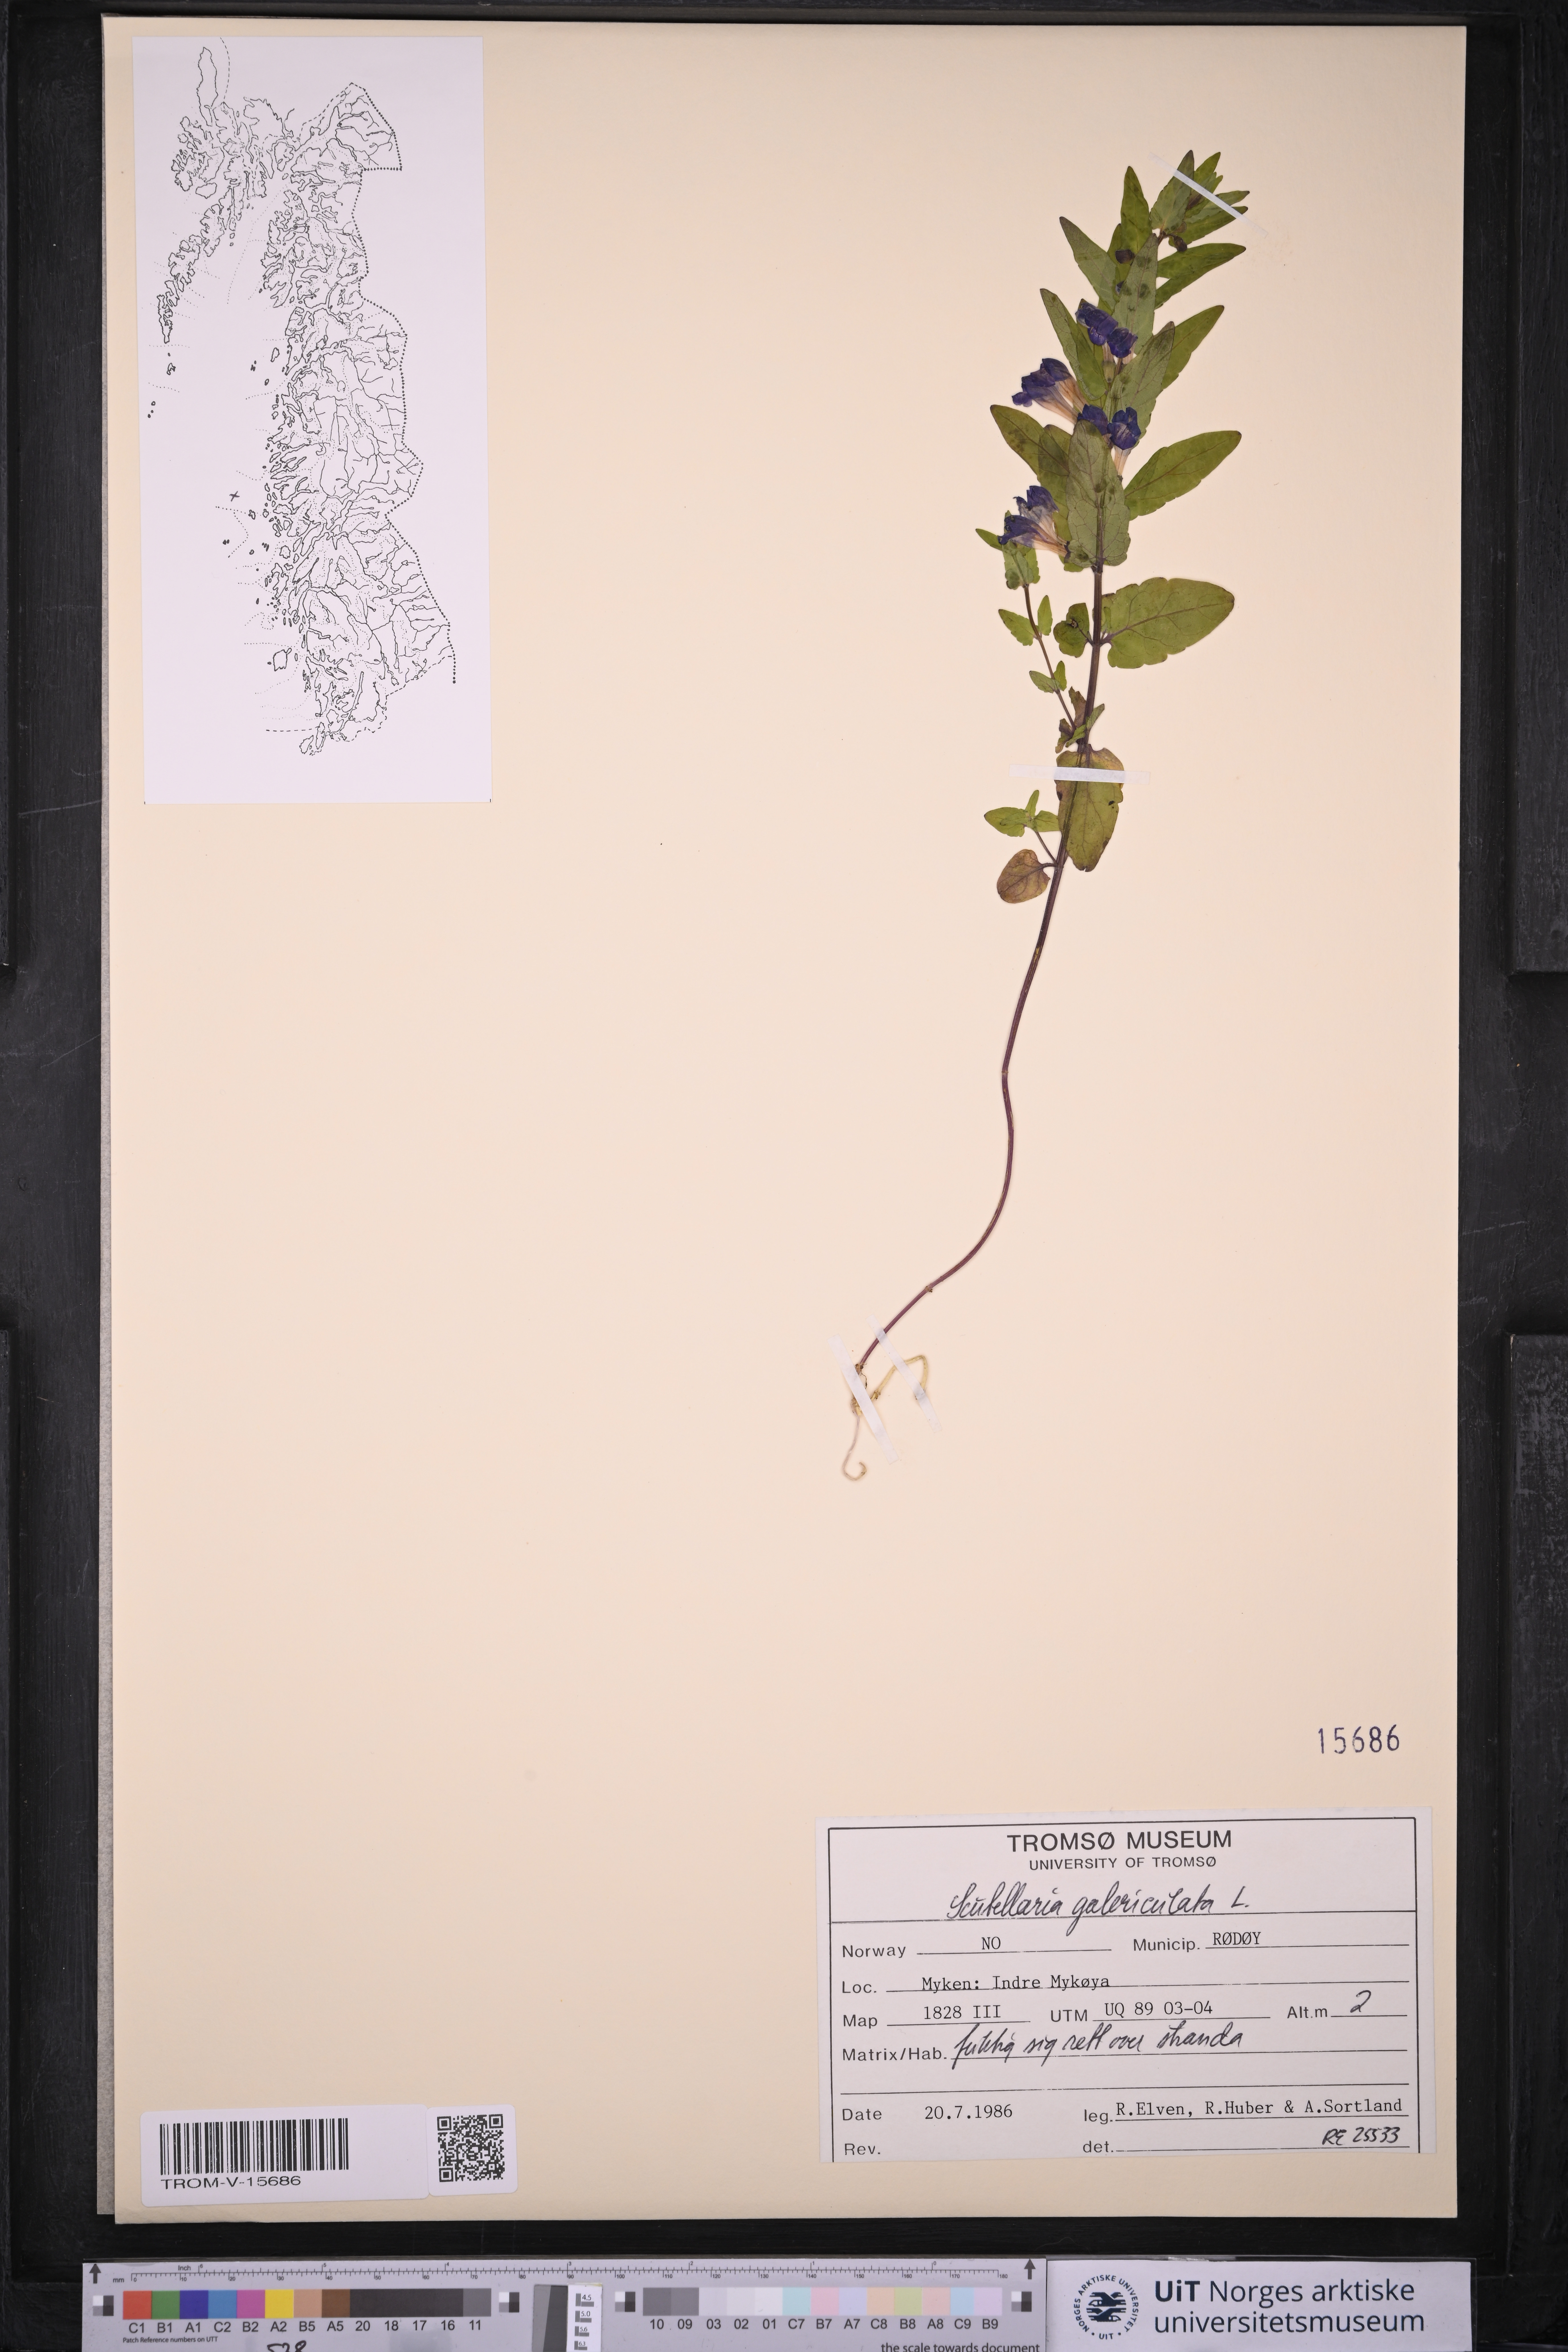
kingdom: Plantae
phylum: Tracheophyta
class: Magnoliopsida
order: Lamiales
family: Lamiaceae
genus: Scutellaria
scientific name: Scutellaria galericulata
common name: Skullcap
